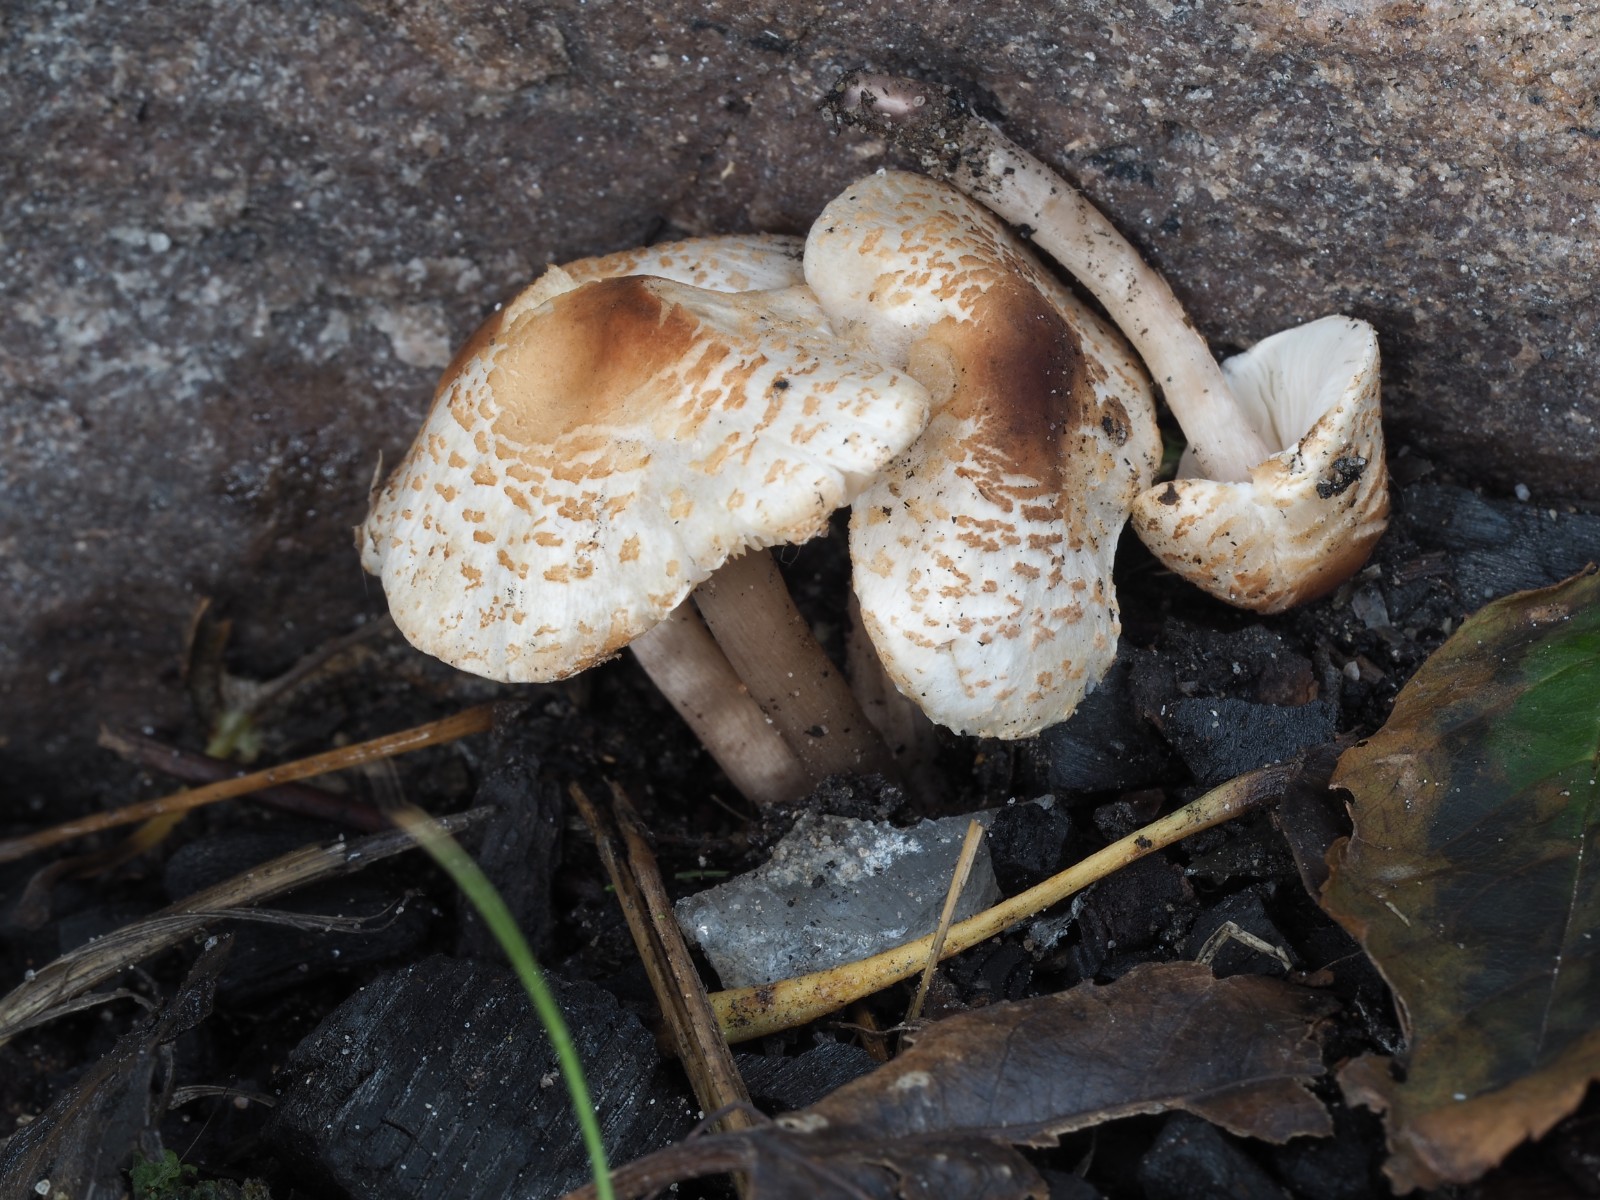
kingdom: Fungi
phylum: Basidiomycota
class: Agaricomycetes
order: Agaricales
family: Agaricaceae
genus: Lepiota
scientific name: Lepiota cristata
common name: stinkende parasolhat
